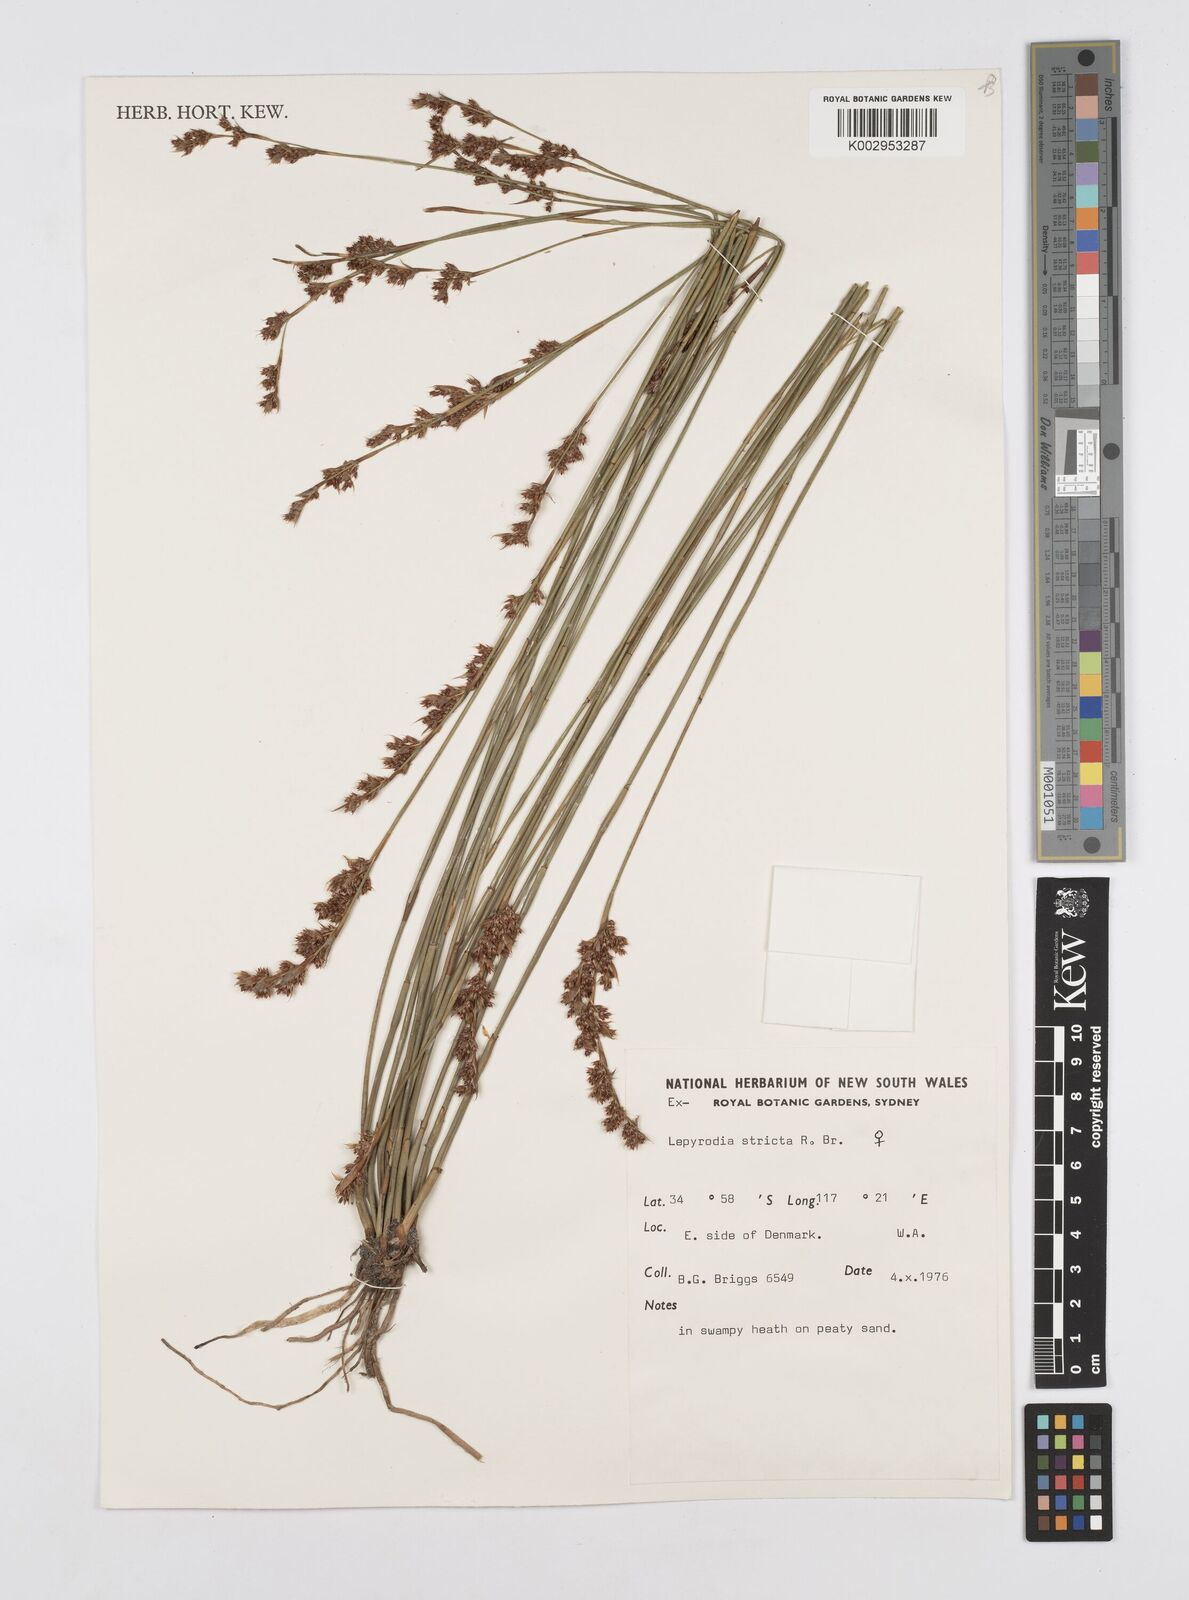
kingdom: Plantae
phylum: Tracheophyta
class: Liliopsida
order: Poales
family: Restionaceae
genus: Sporadanthus
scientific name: Sporadanthus strictus
